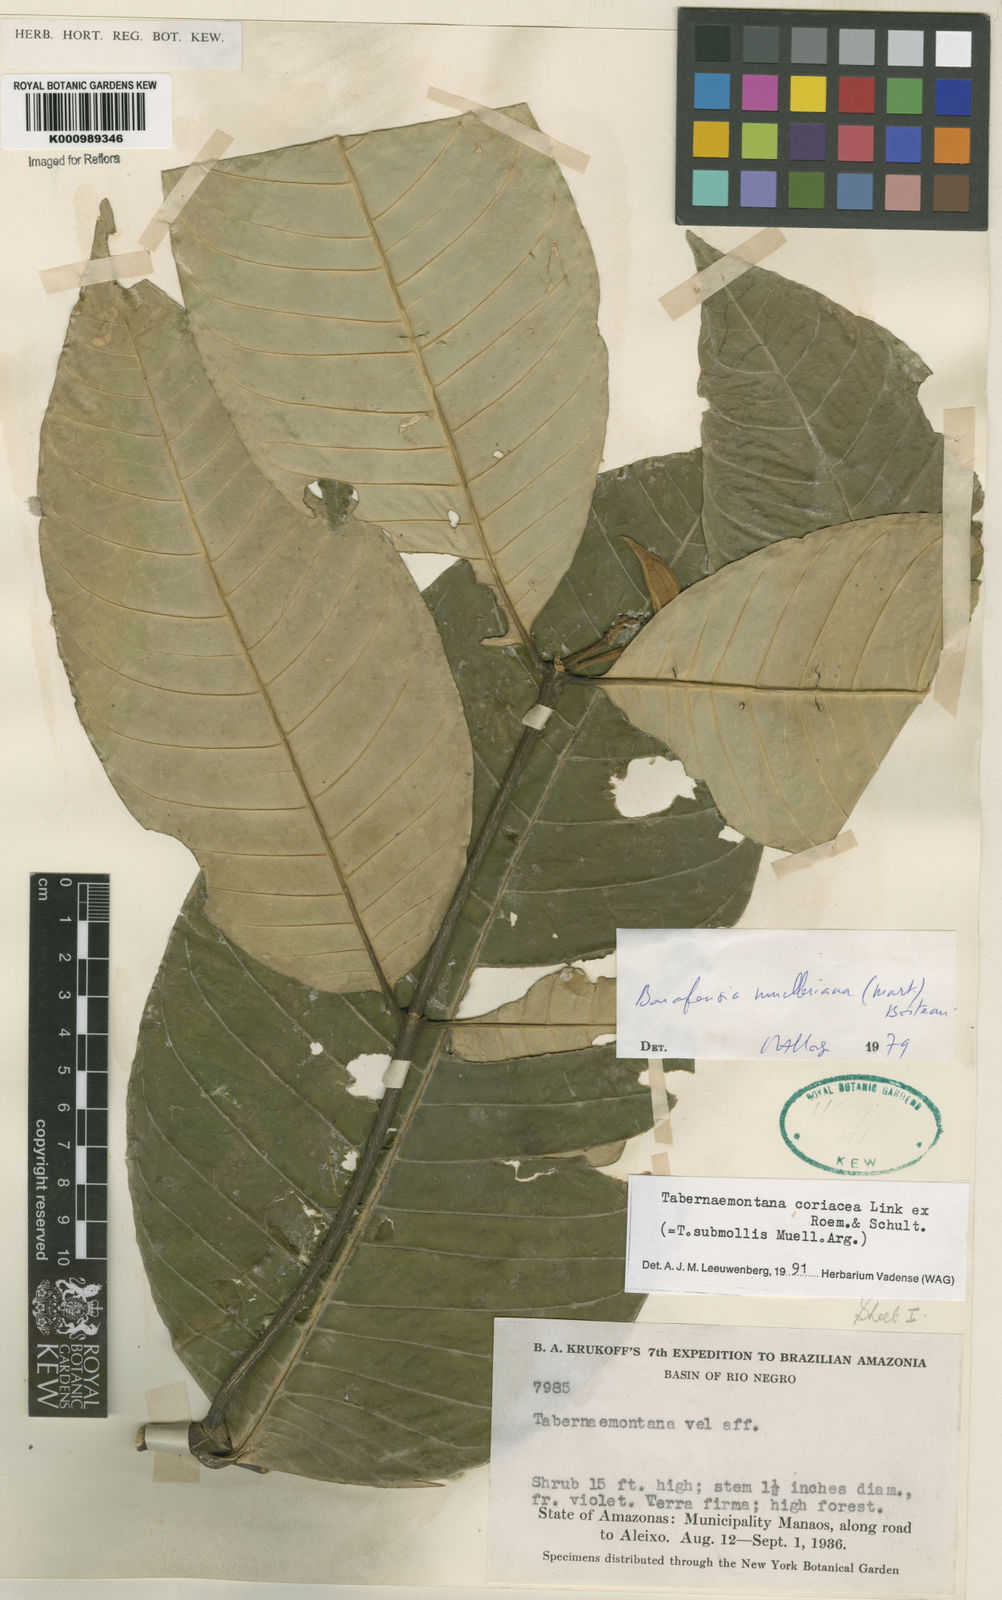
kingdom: Plantae
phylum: Tracheophyta
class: Magnoliopsida
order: Gentianales
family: Apocynaceae
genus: Tabernaemontana
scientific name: Tabernaemontana coriacea
